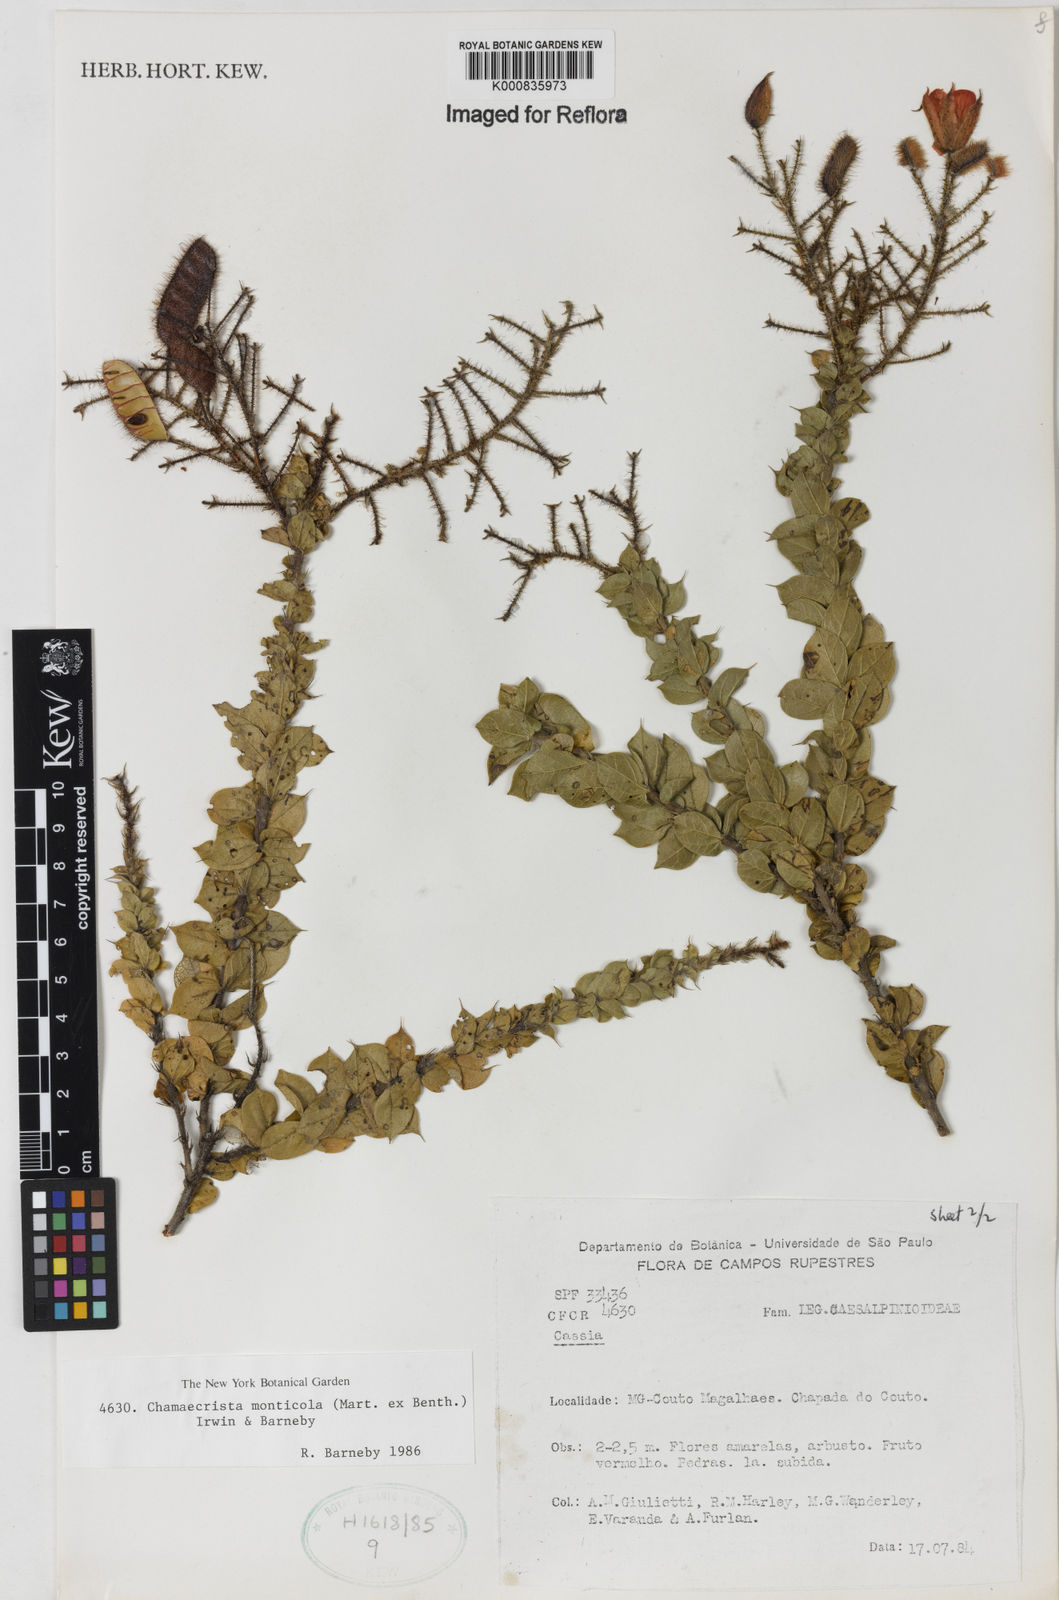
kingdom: Plantae
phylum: Tracheophyta
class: Magnoliopsida
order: Fabales
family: Fabaceae
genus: Chamaecrista
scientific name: Chamaecrista monticola
